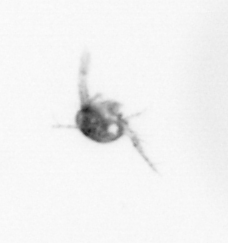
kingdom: Animalia
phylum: Arthropoda
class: Copepoda
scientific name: Copepoda
